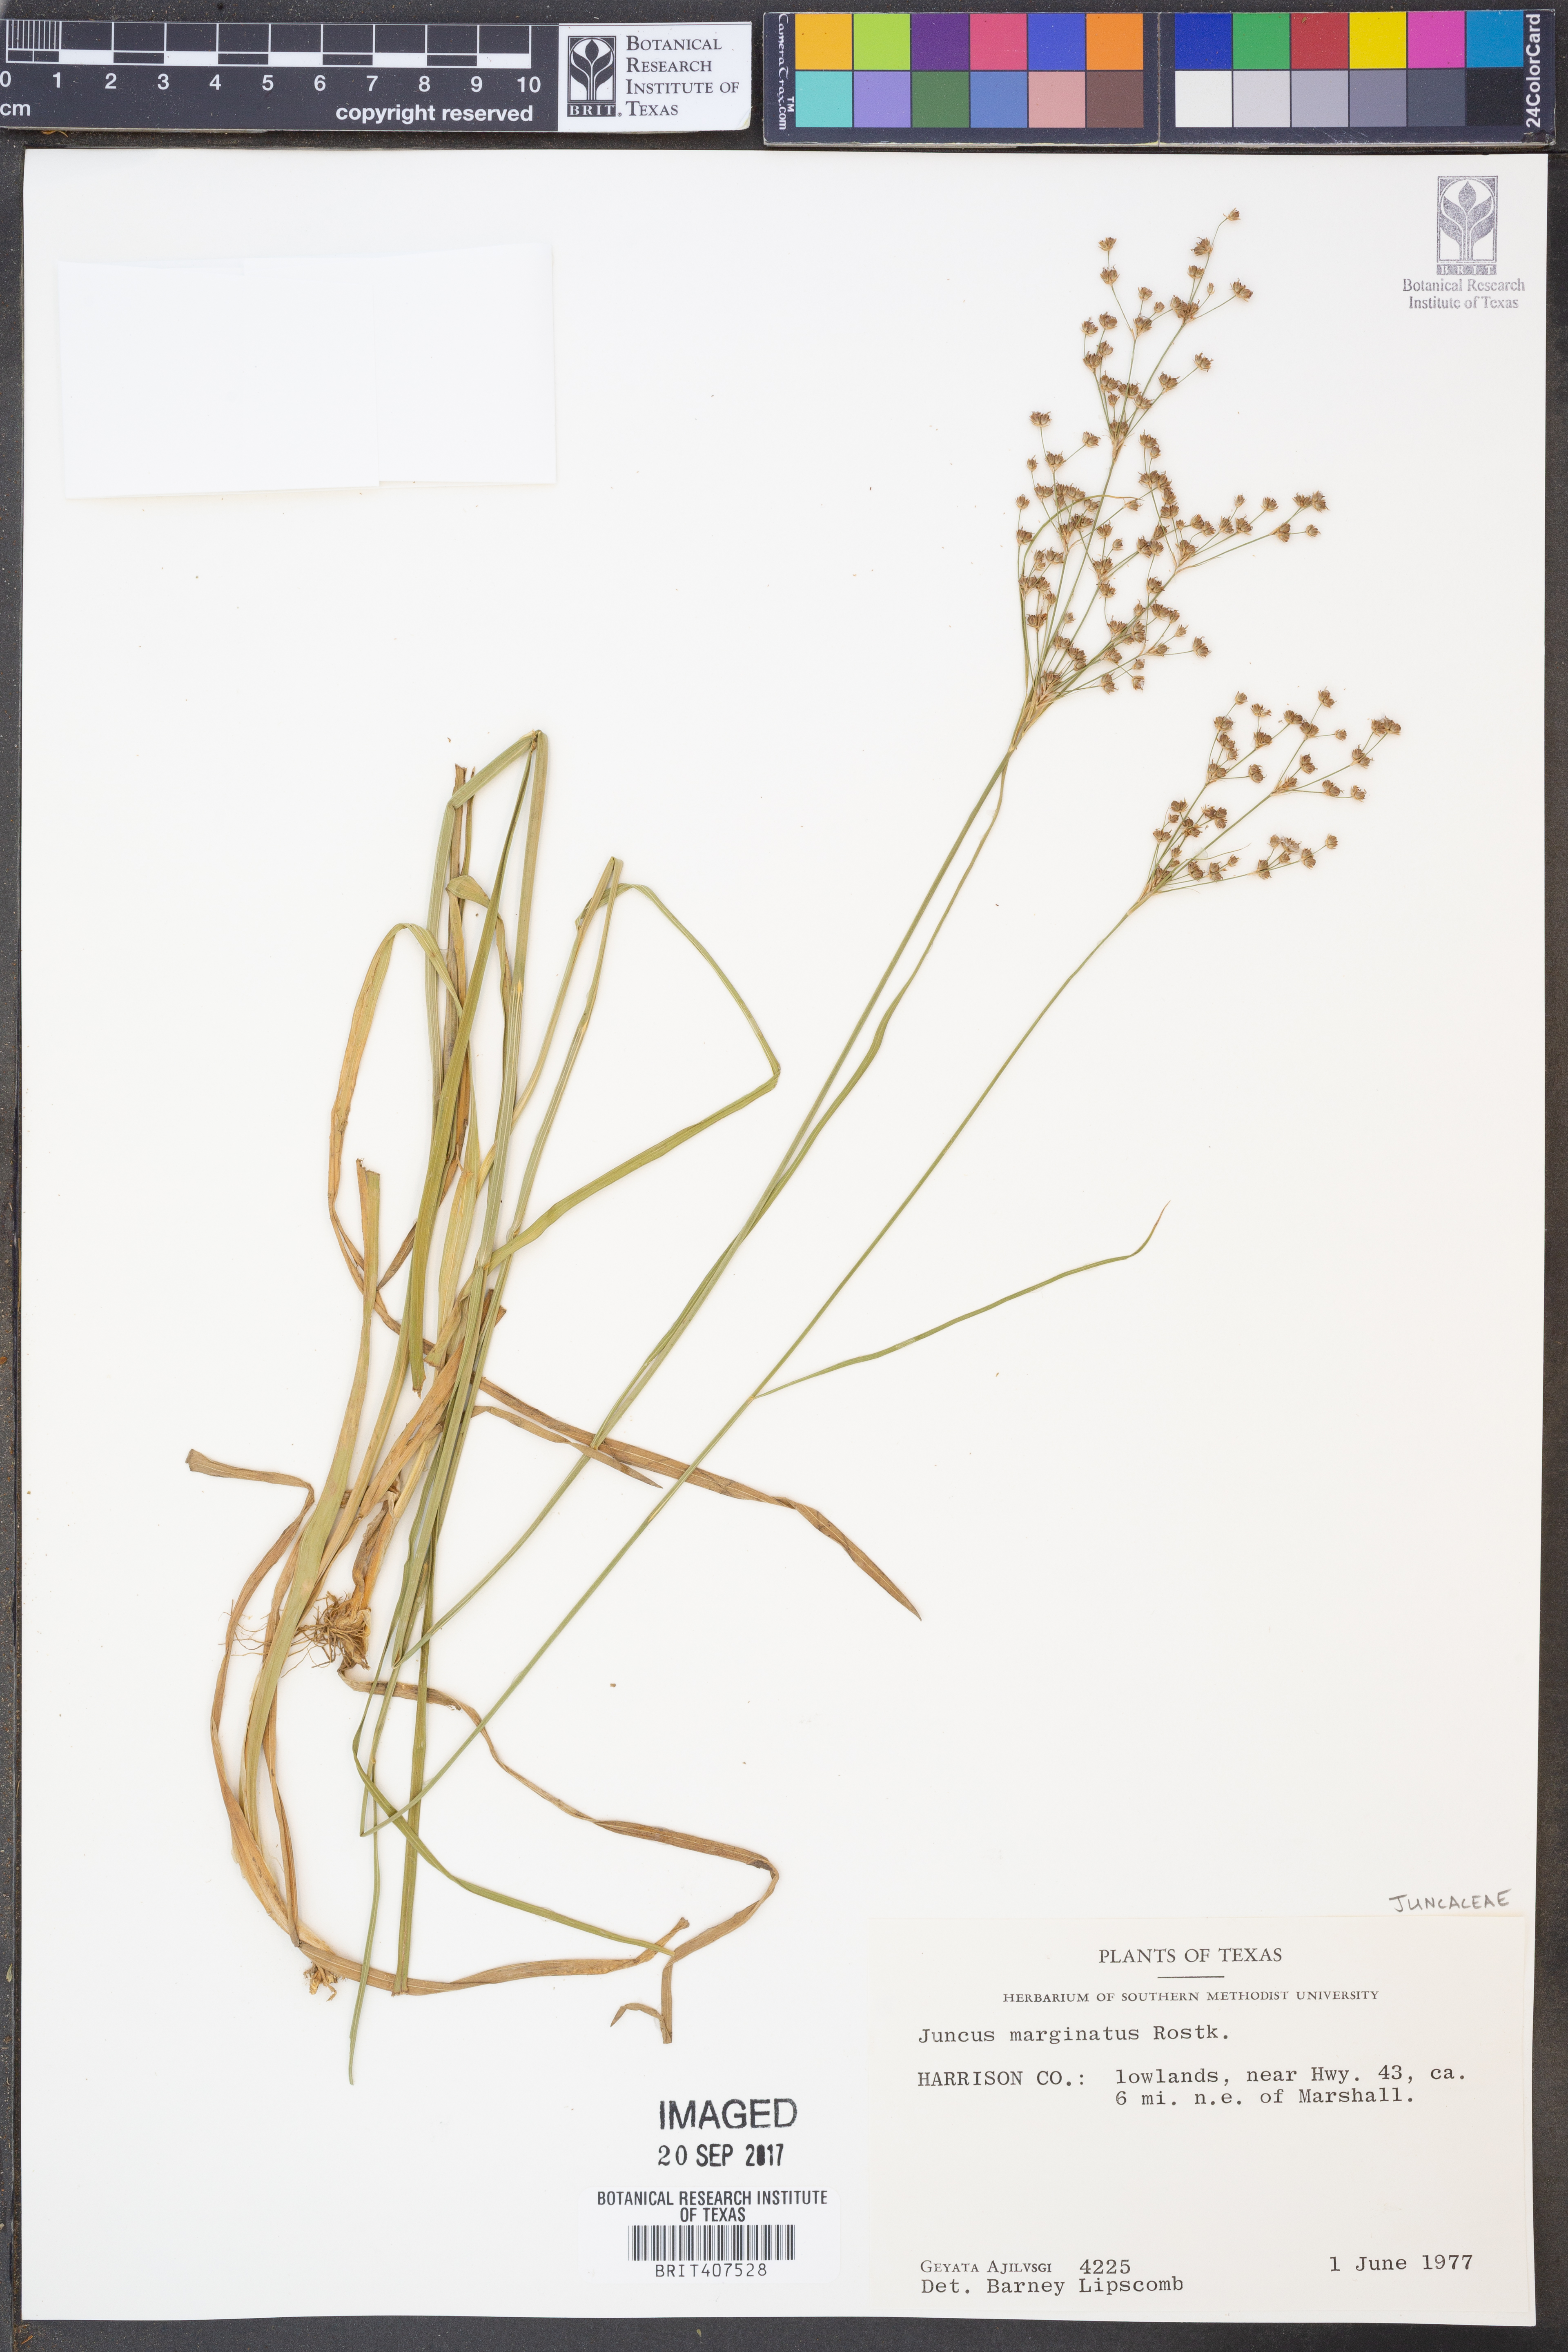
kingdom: Plantae
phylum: Tracheophyta
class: Liliopsida
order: Poales
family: Juncaceae
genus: Juncus
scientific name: Juncus marginatus
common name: Grass-leaf rush
